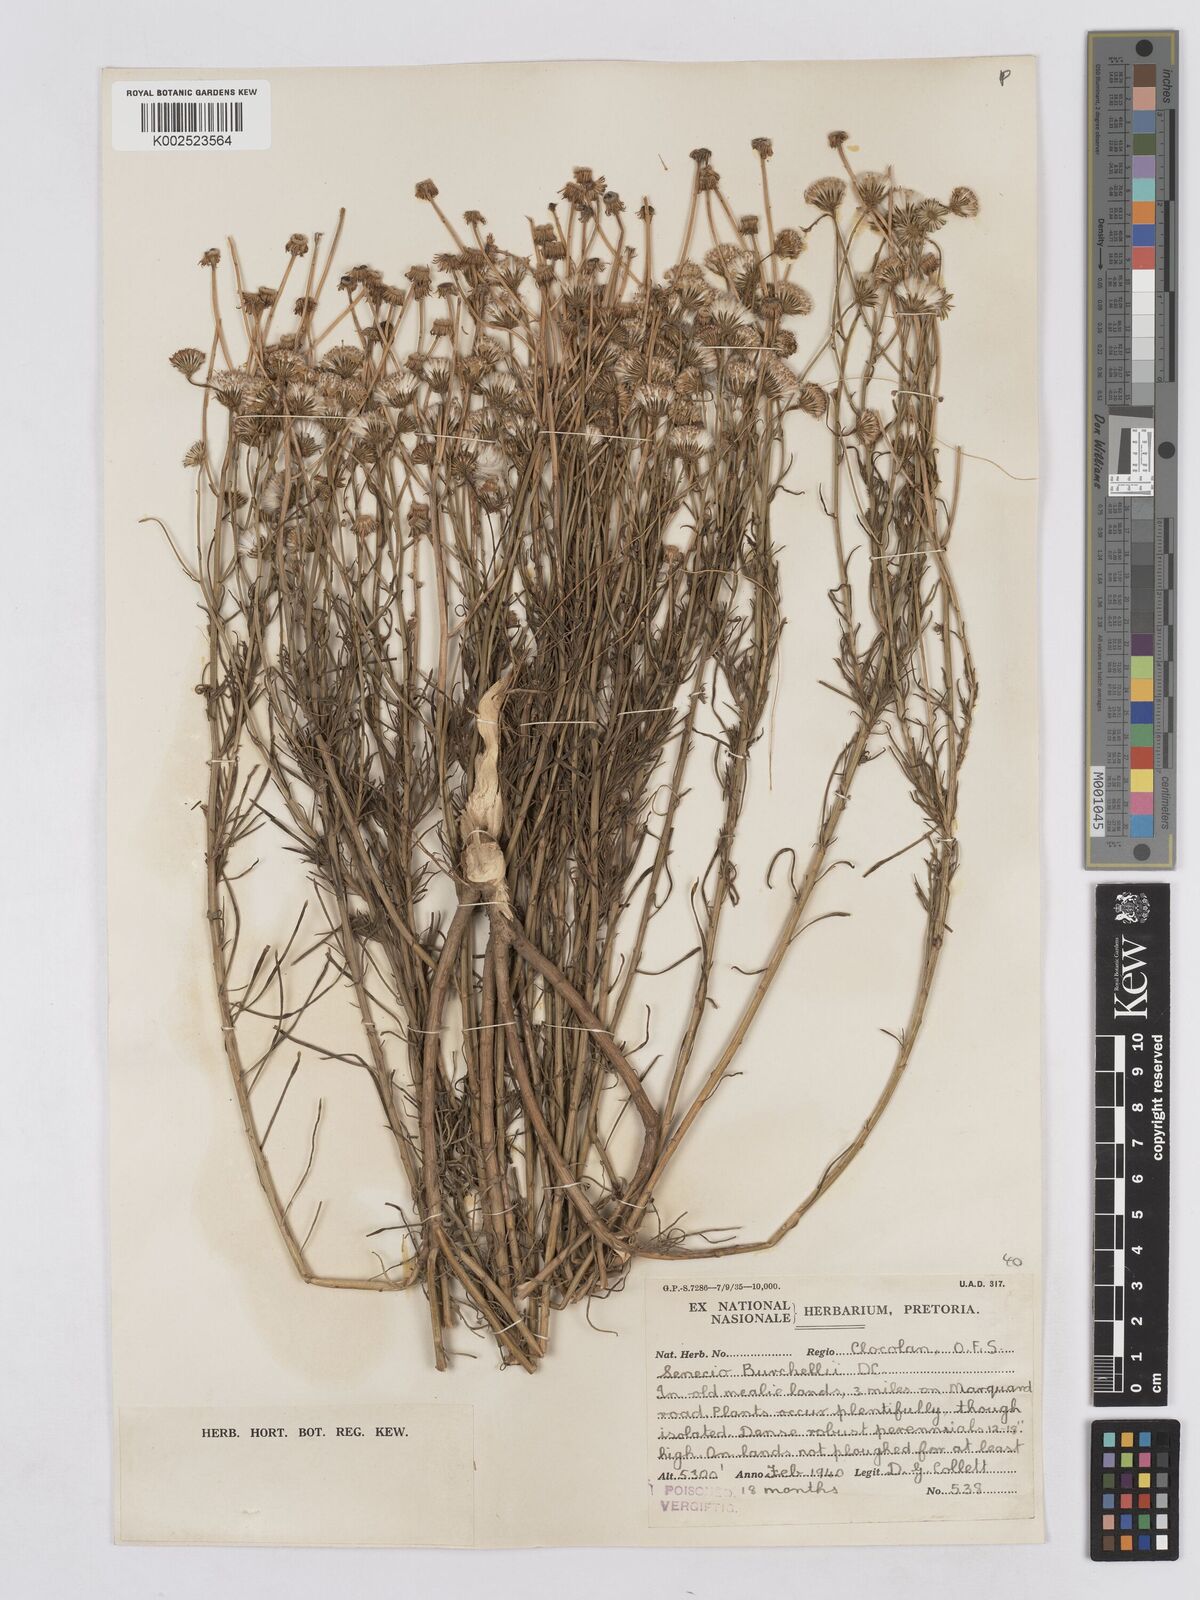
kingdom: Plantae
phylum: Tracheophyta
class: Magnoliopsida
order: Asterales
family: Asteraceae
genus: Senecio
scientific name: Senecio inaequidens
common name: Narrow-leaved ragwort
